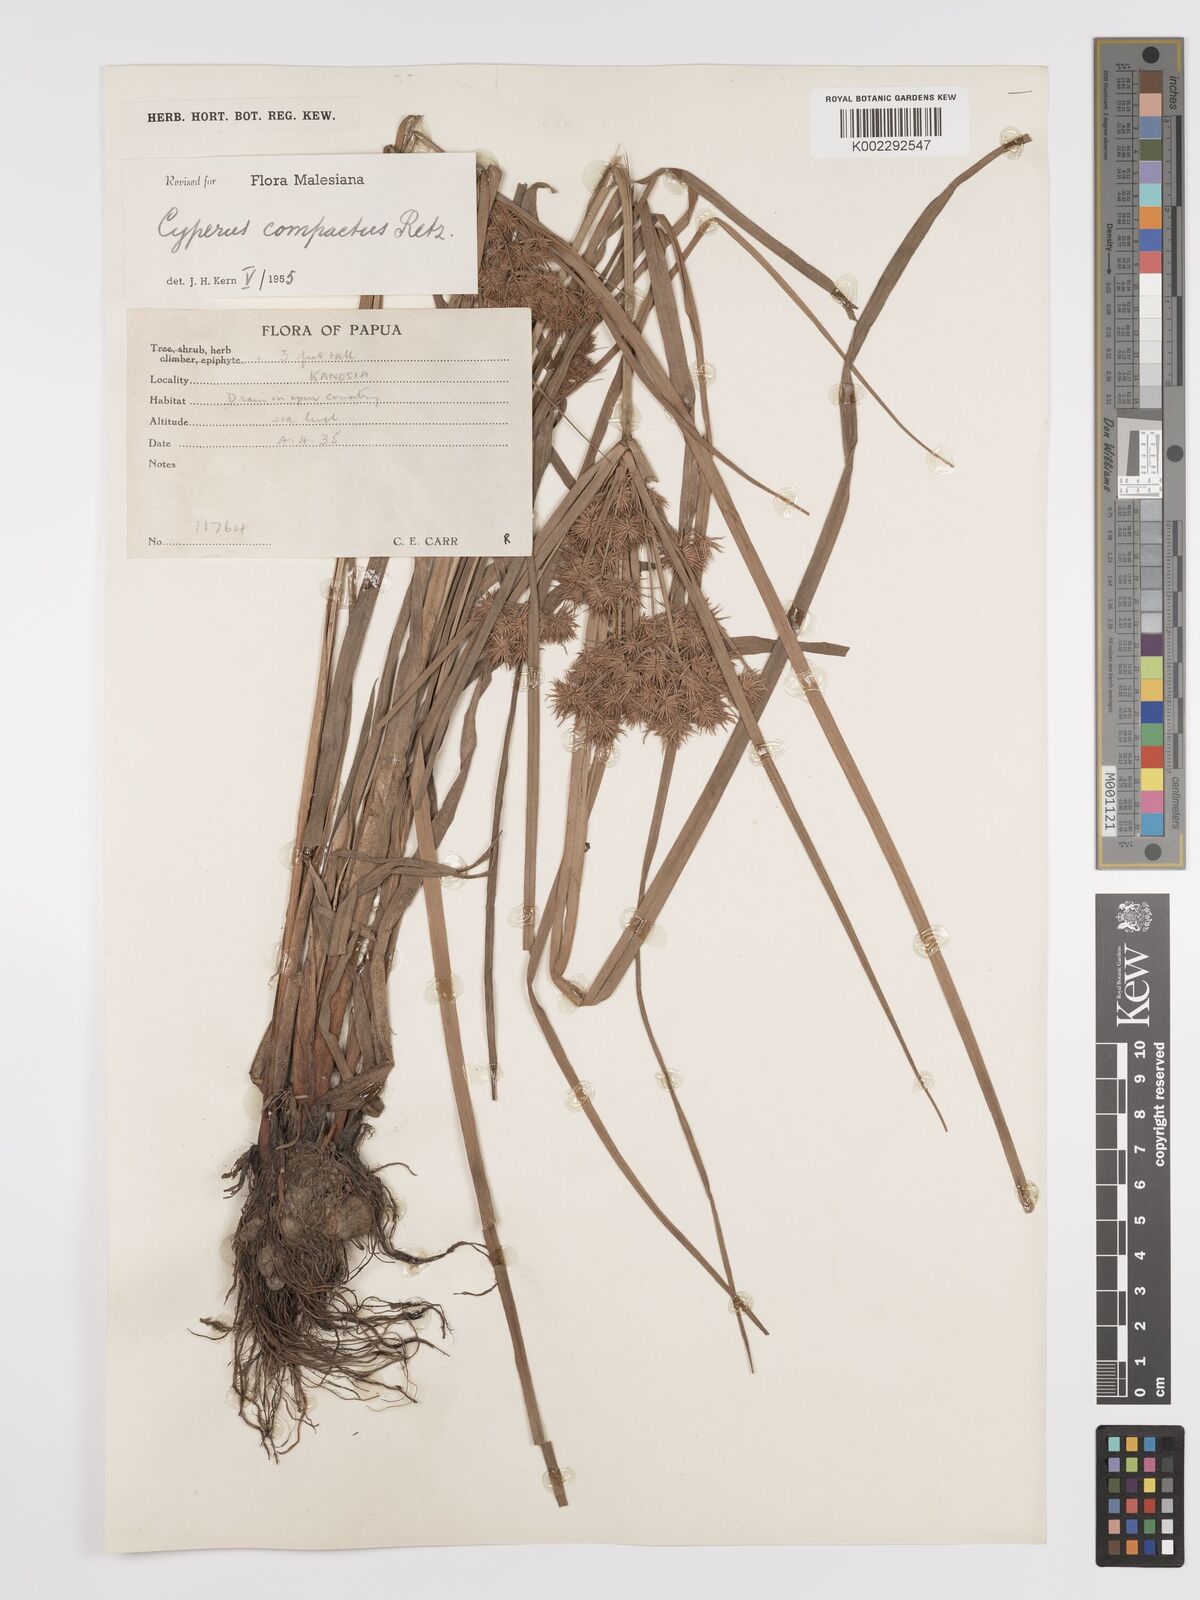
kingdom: Plantae
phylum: Tracheophyta
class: Liliopsida
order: Poales
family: Cyperaceae
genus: Cyperus
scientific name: Cyperus compactus
